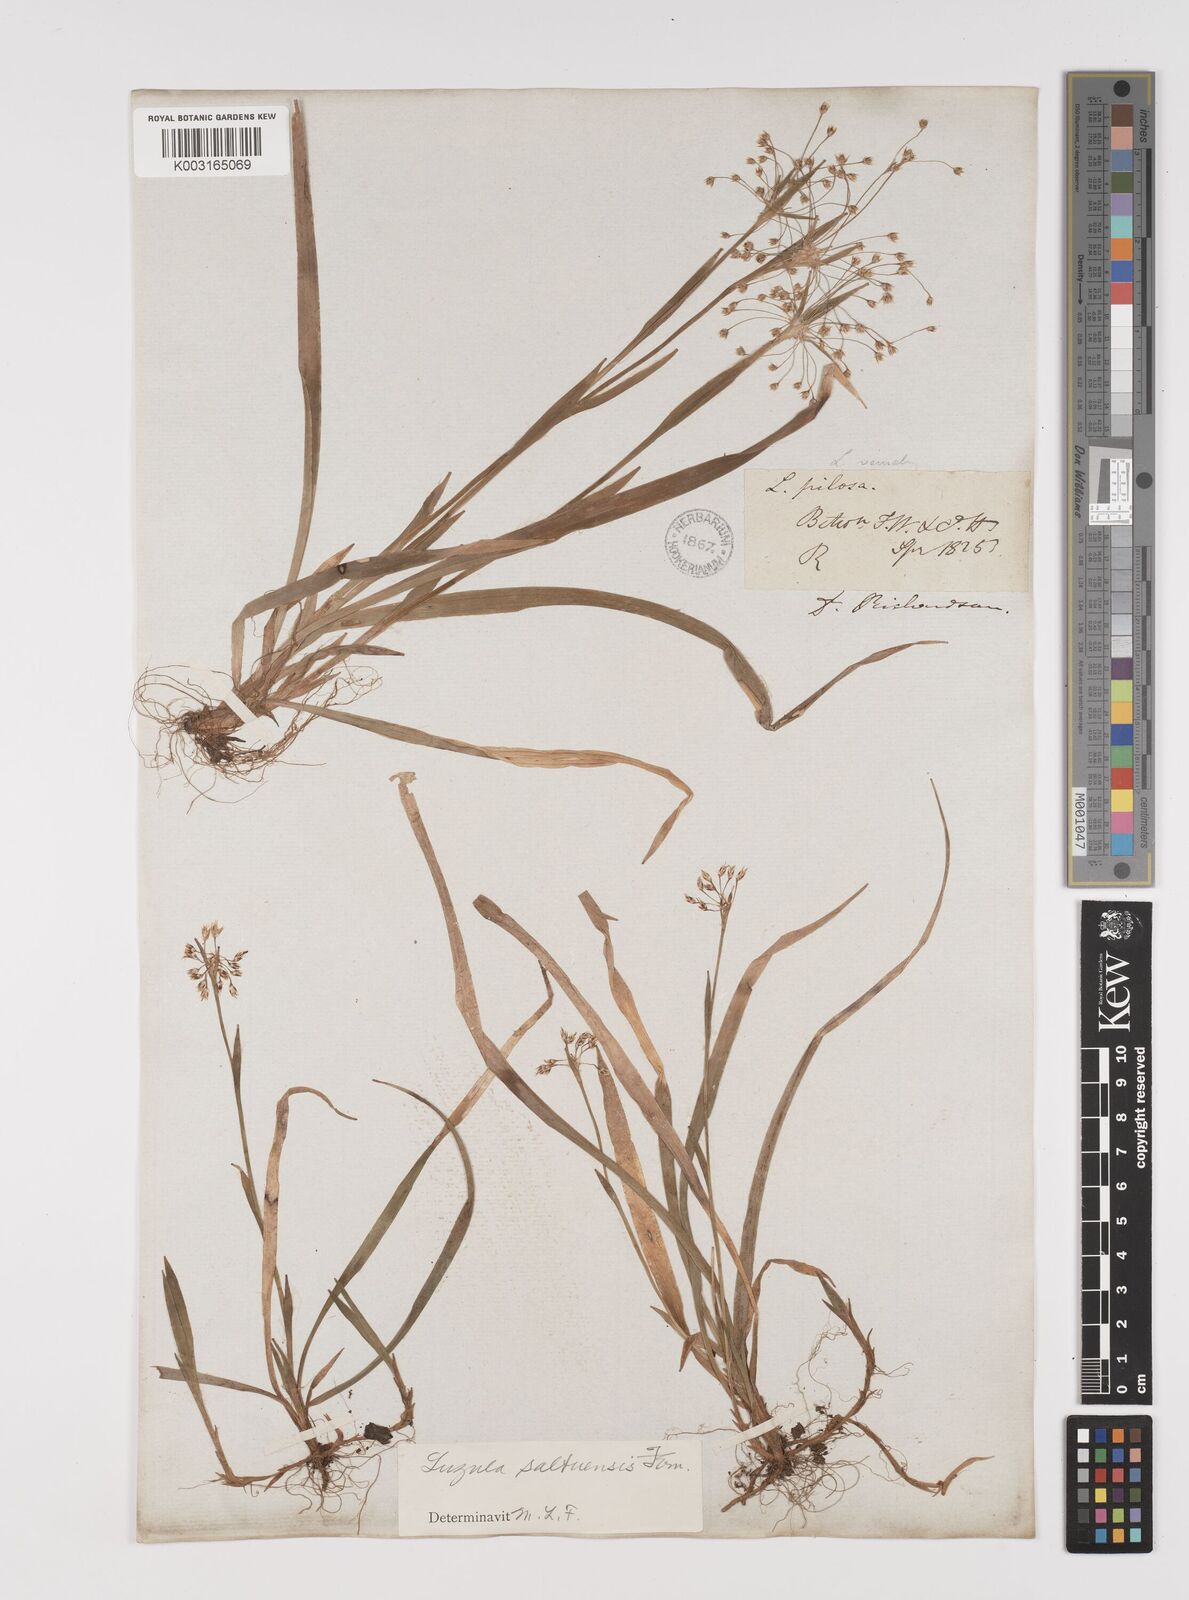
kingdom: Plantae
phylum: Tracheophyta
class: Liliopsida
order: Poales
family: Juncaceae
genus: Luzula
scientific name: Luzula acuminata
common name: Hairy woodrush
